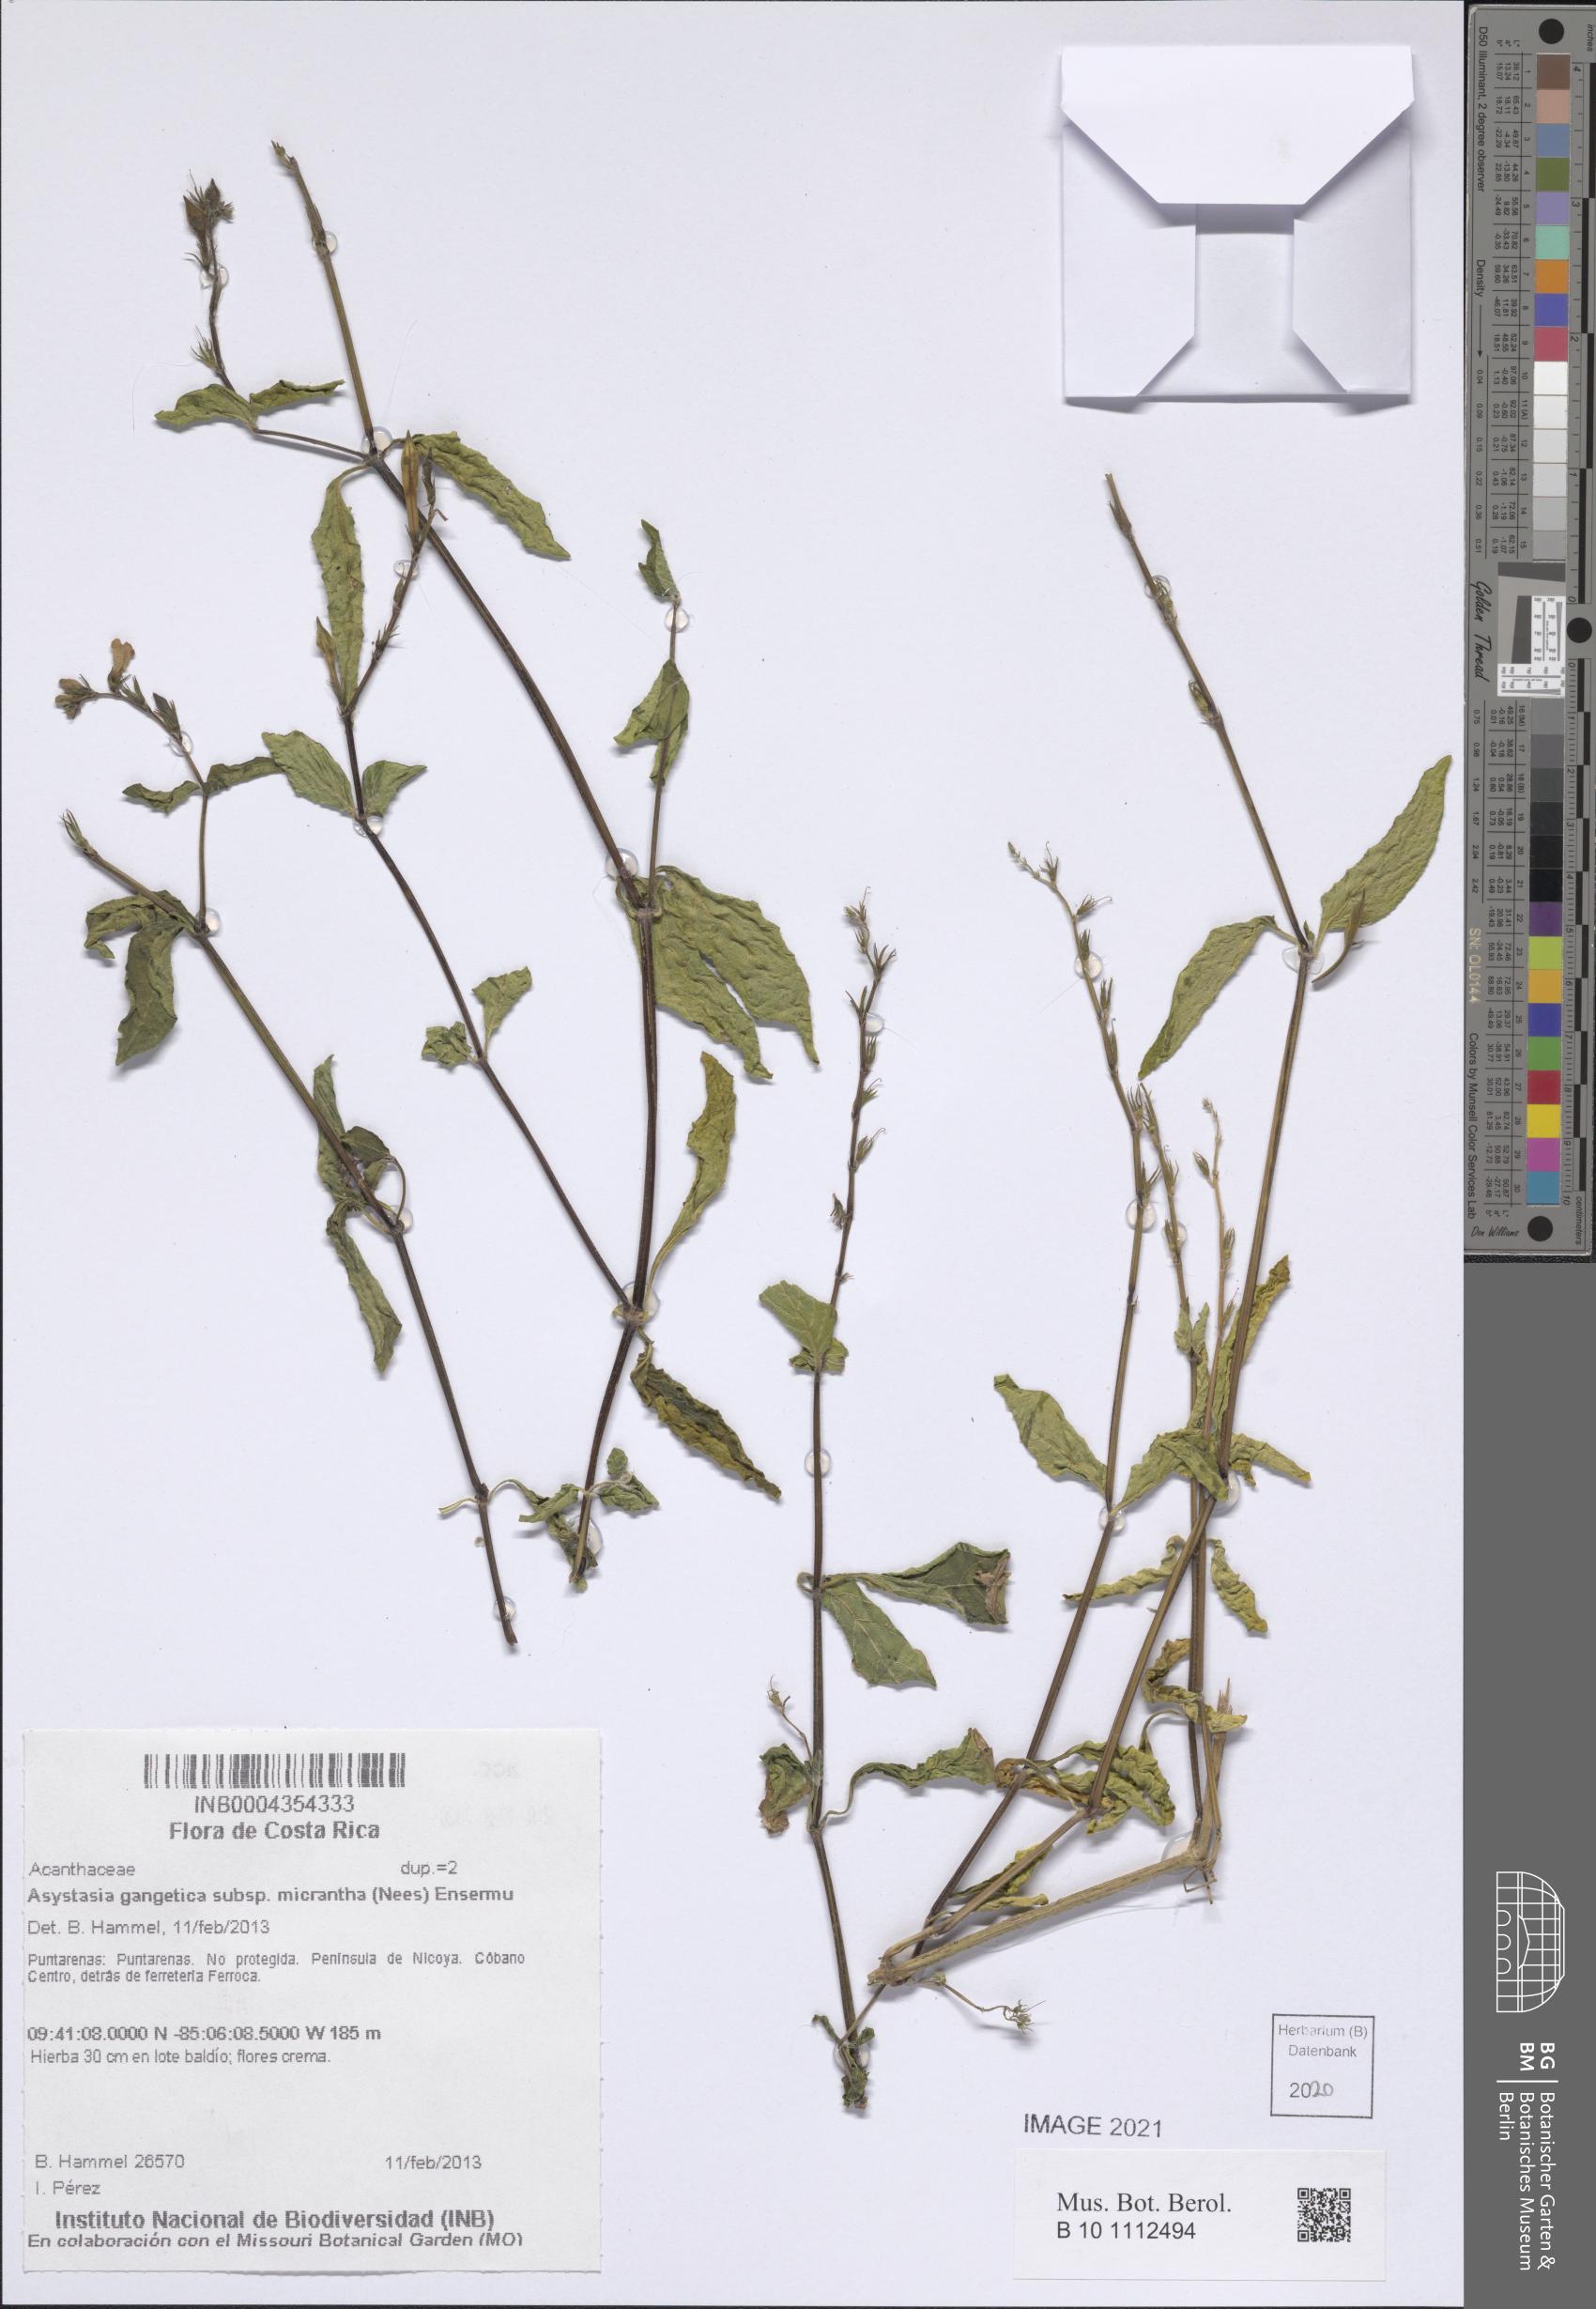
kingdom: Plantae
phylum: Tracheophyta
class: Magnoliopsida
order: Lamiales
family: Acanthaceae
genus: Asystasia
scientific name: Asystasia intrusa
